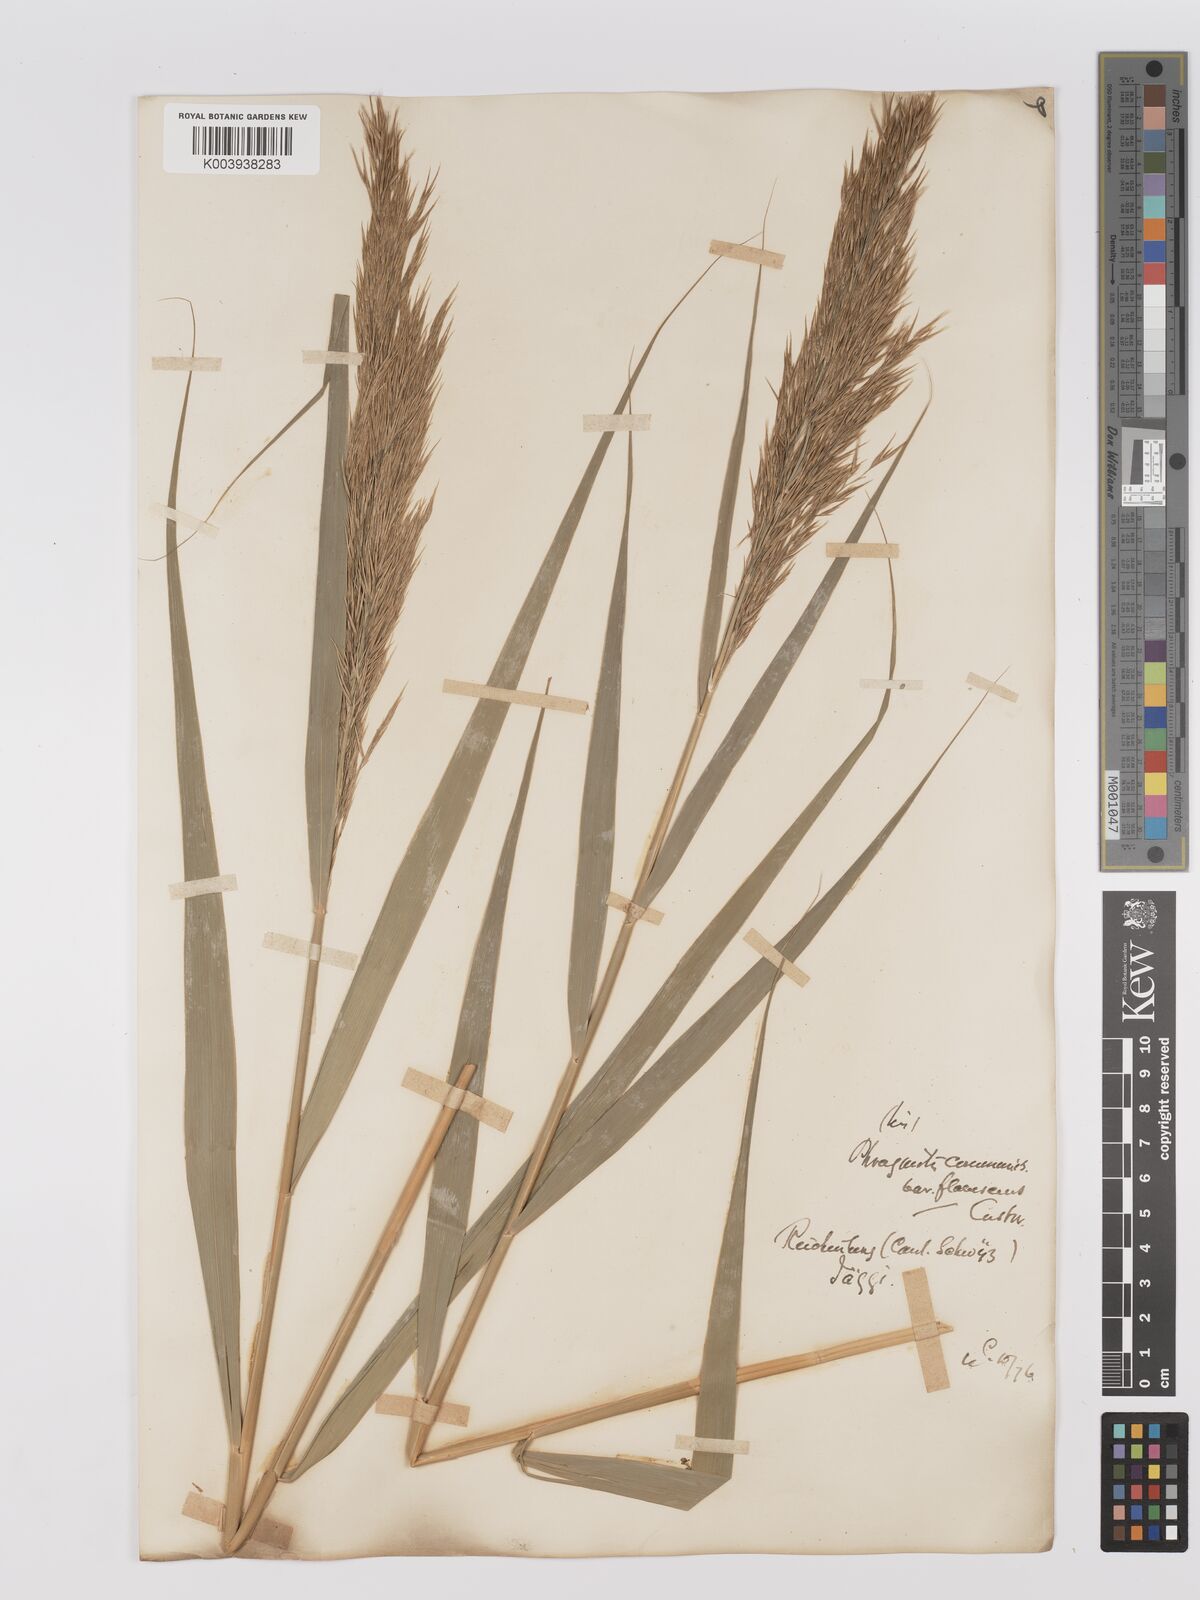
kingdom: Plantae
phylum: Tracheophyta
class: Liliopsida
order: Poales
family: Poaceae
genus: Phragmites
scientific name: Phragmites australis
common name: Common reed
